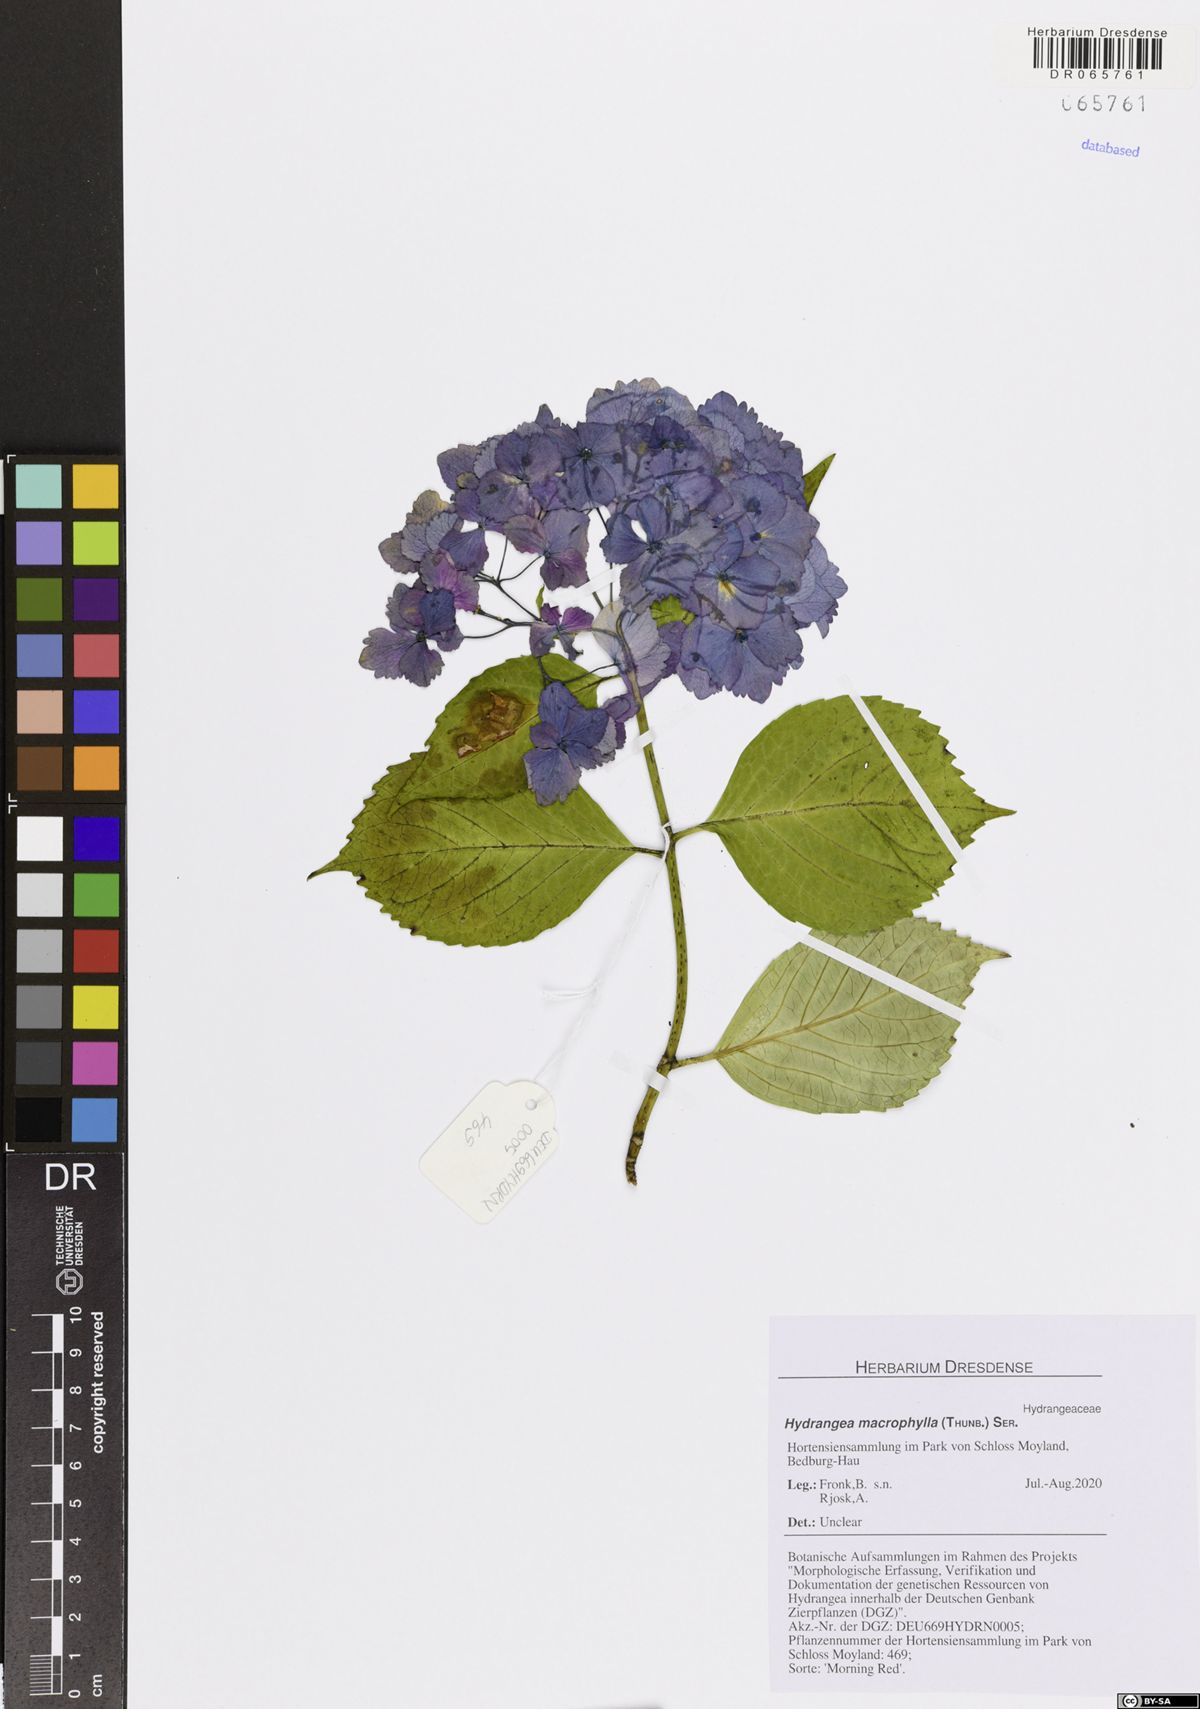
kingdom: Plantae
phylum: Tracheophyta
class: Magnoliopsida
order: Cornales
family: Hydrangeaceae
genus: Hydrangea
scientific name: Hydrangea macrophylla
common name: Hydrangea
